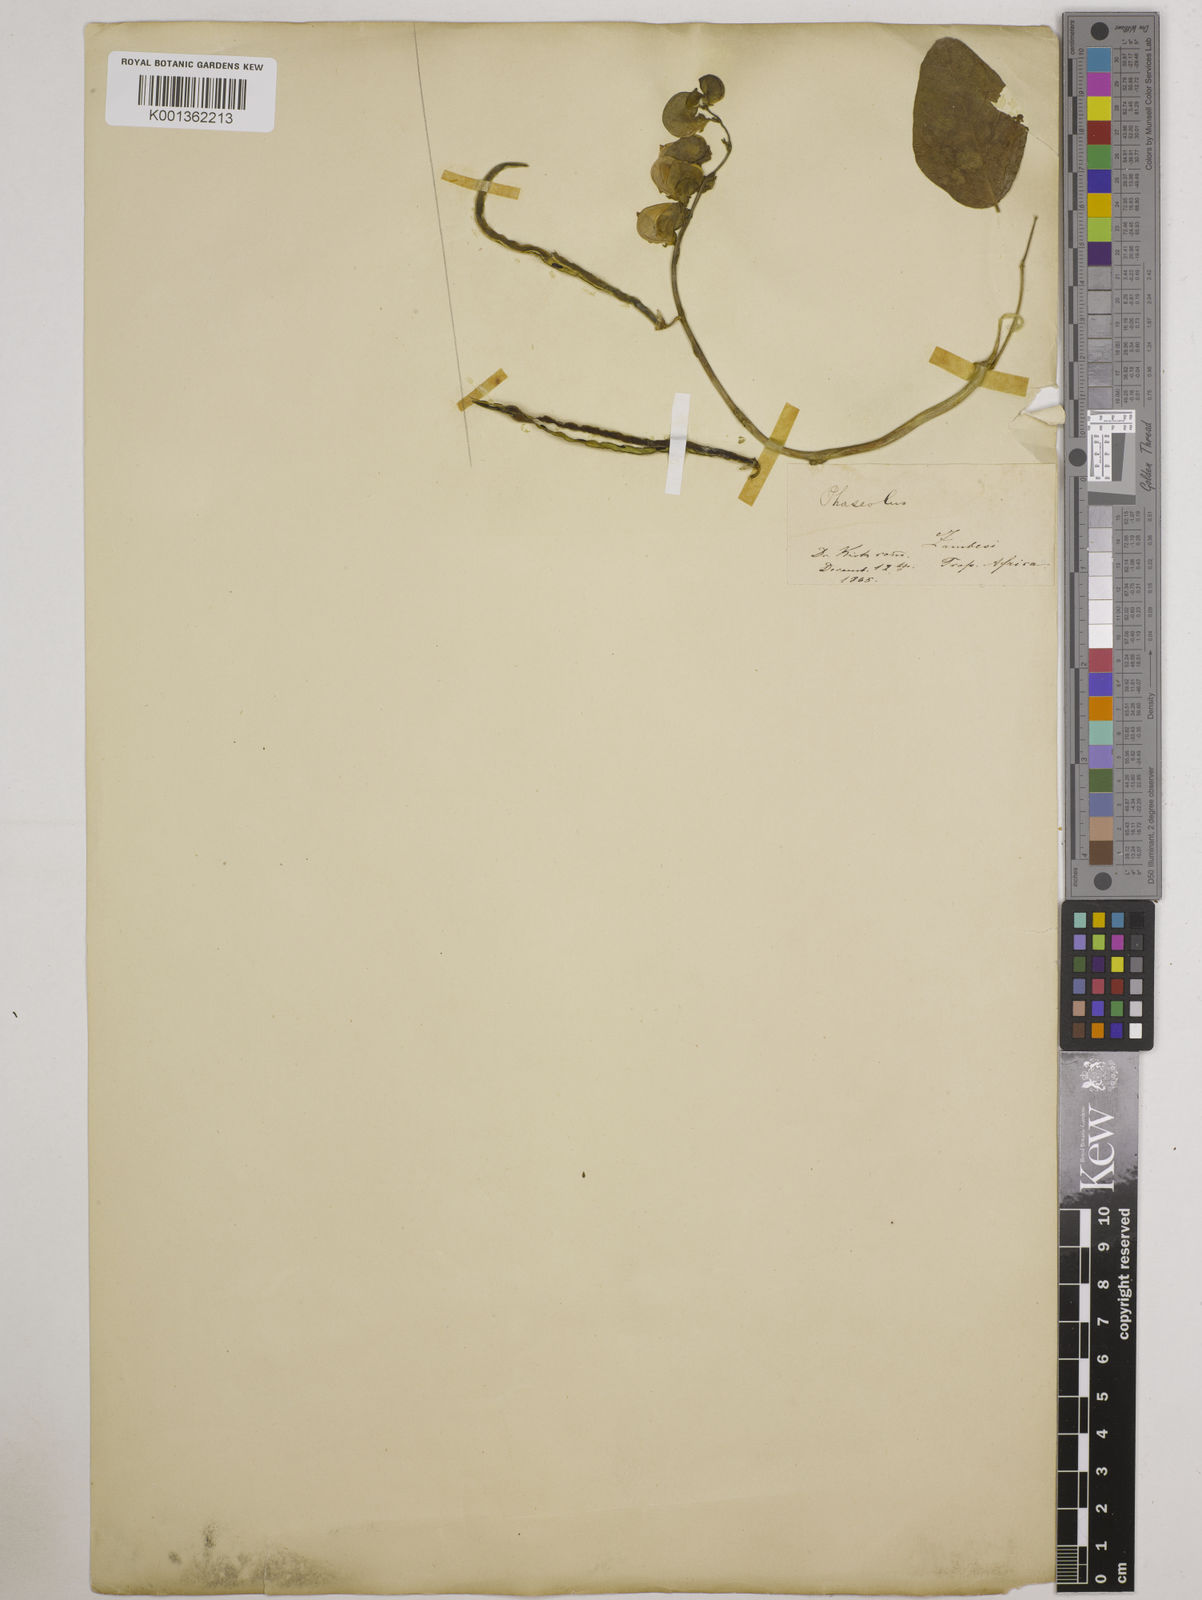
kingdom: Plantae
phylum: Tracheophyta
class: Magnoliopsida
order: Fabales
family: Fabaceae
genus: Wajira
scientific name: Wajira grahamiana
